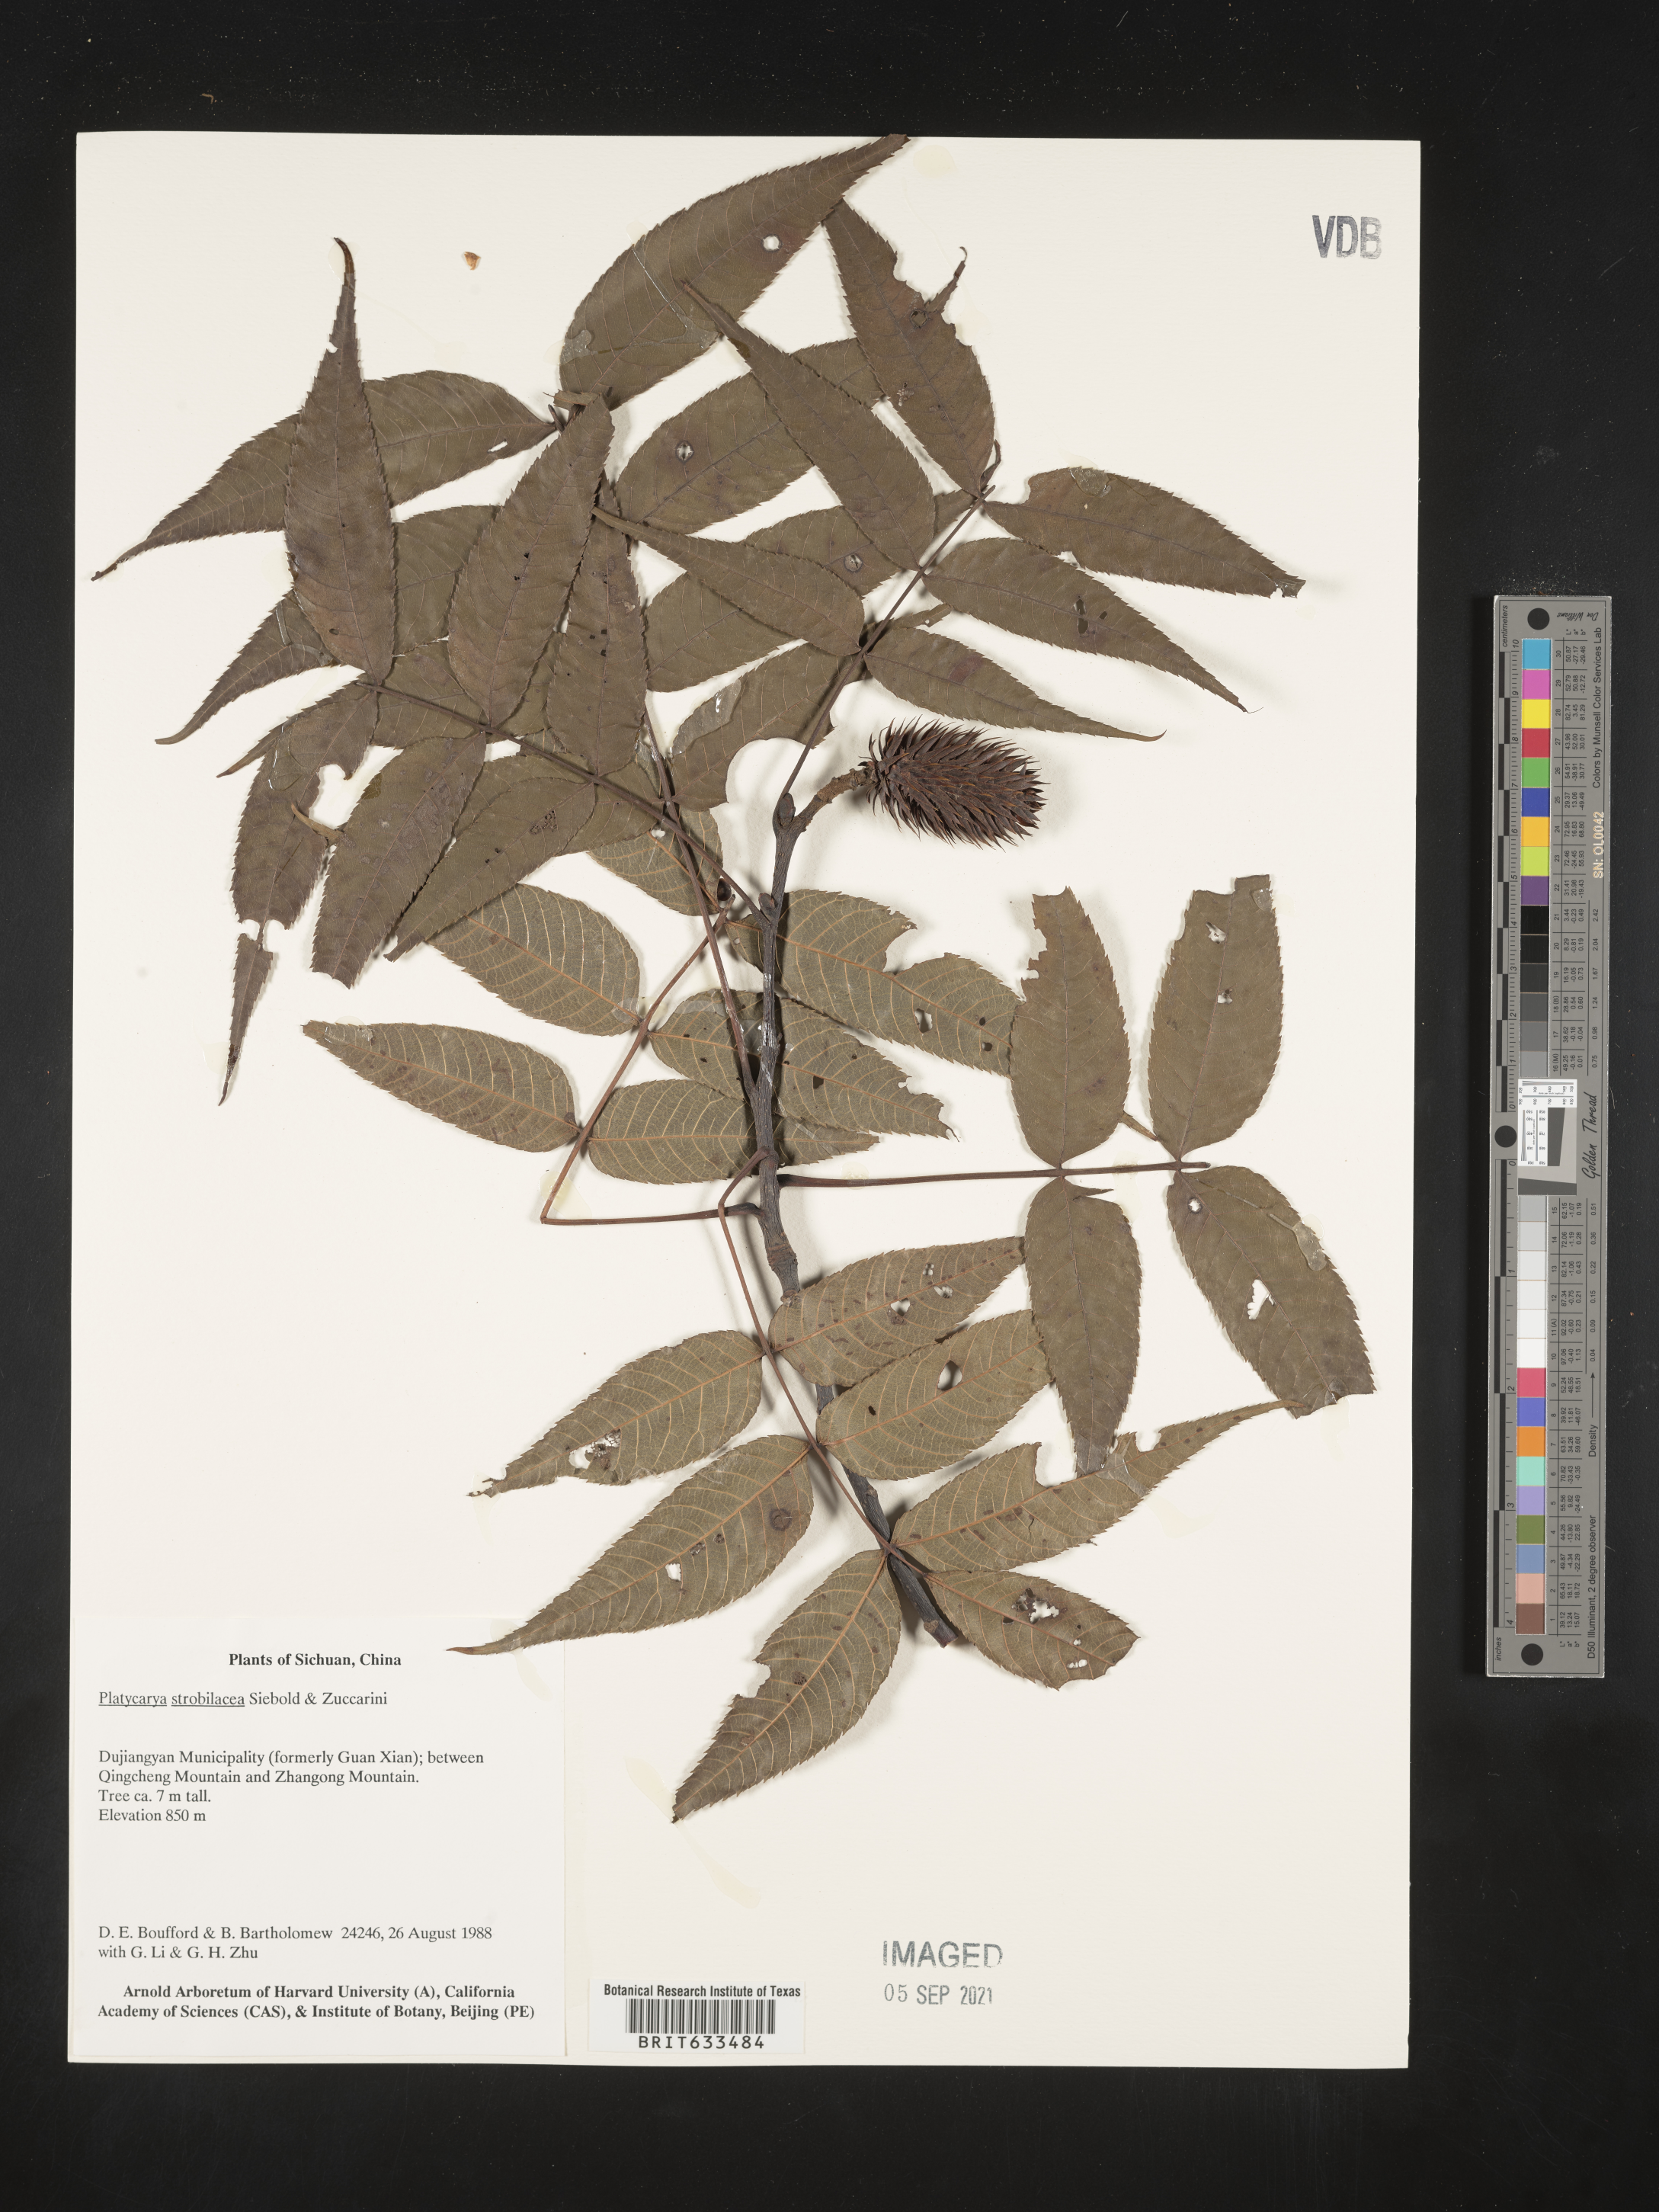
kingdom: Plantae
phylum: Tracheophyta
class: Magnoliopsida
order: Fagales
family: Juglandaceae
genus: Platycarya
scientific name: Platycarya strobilacea
